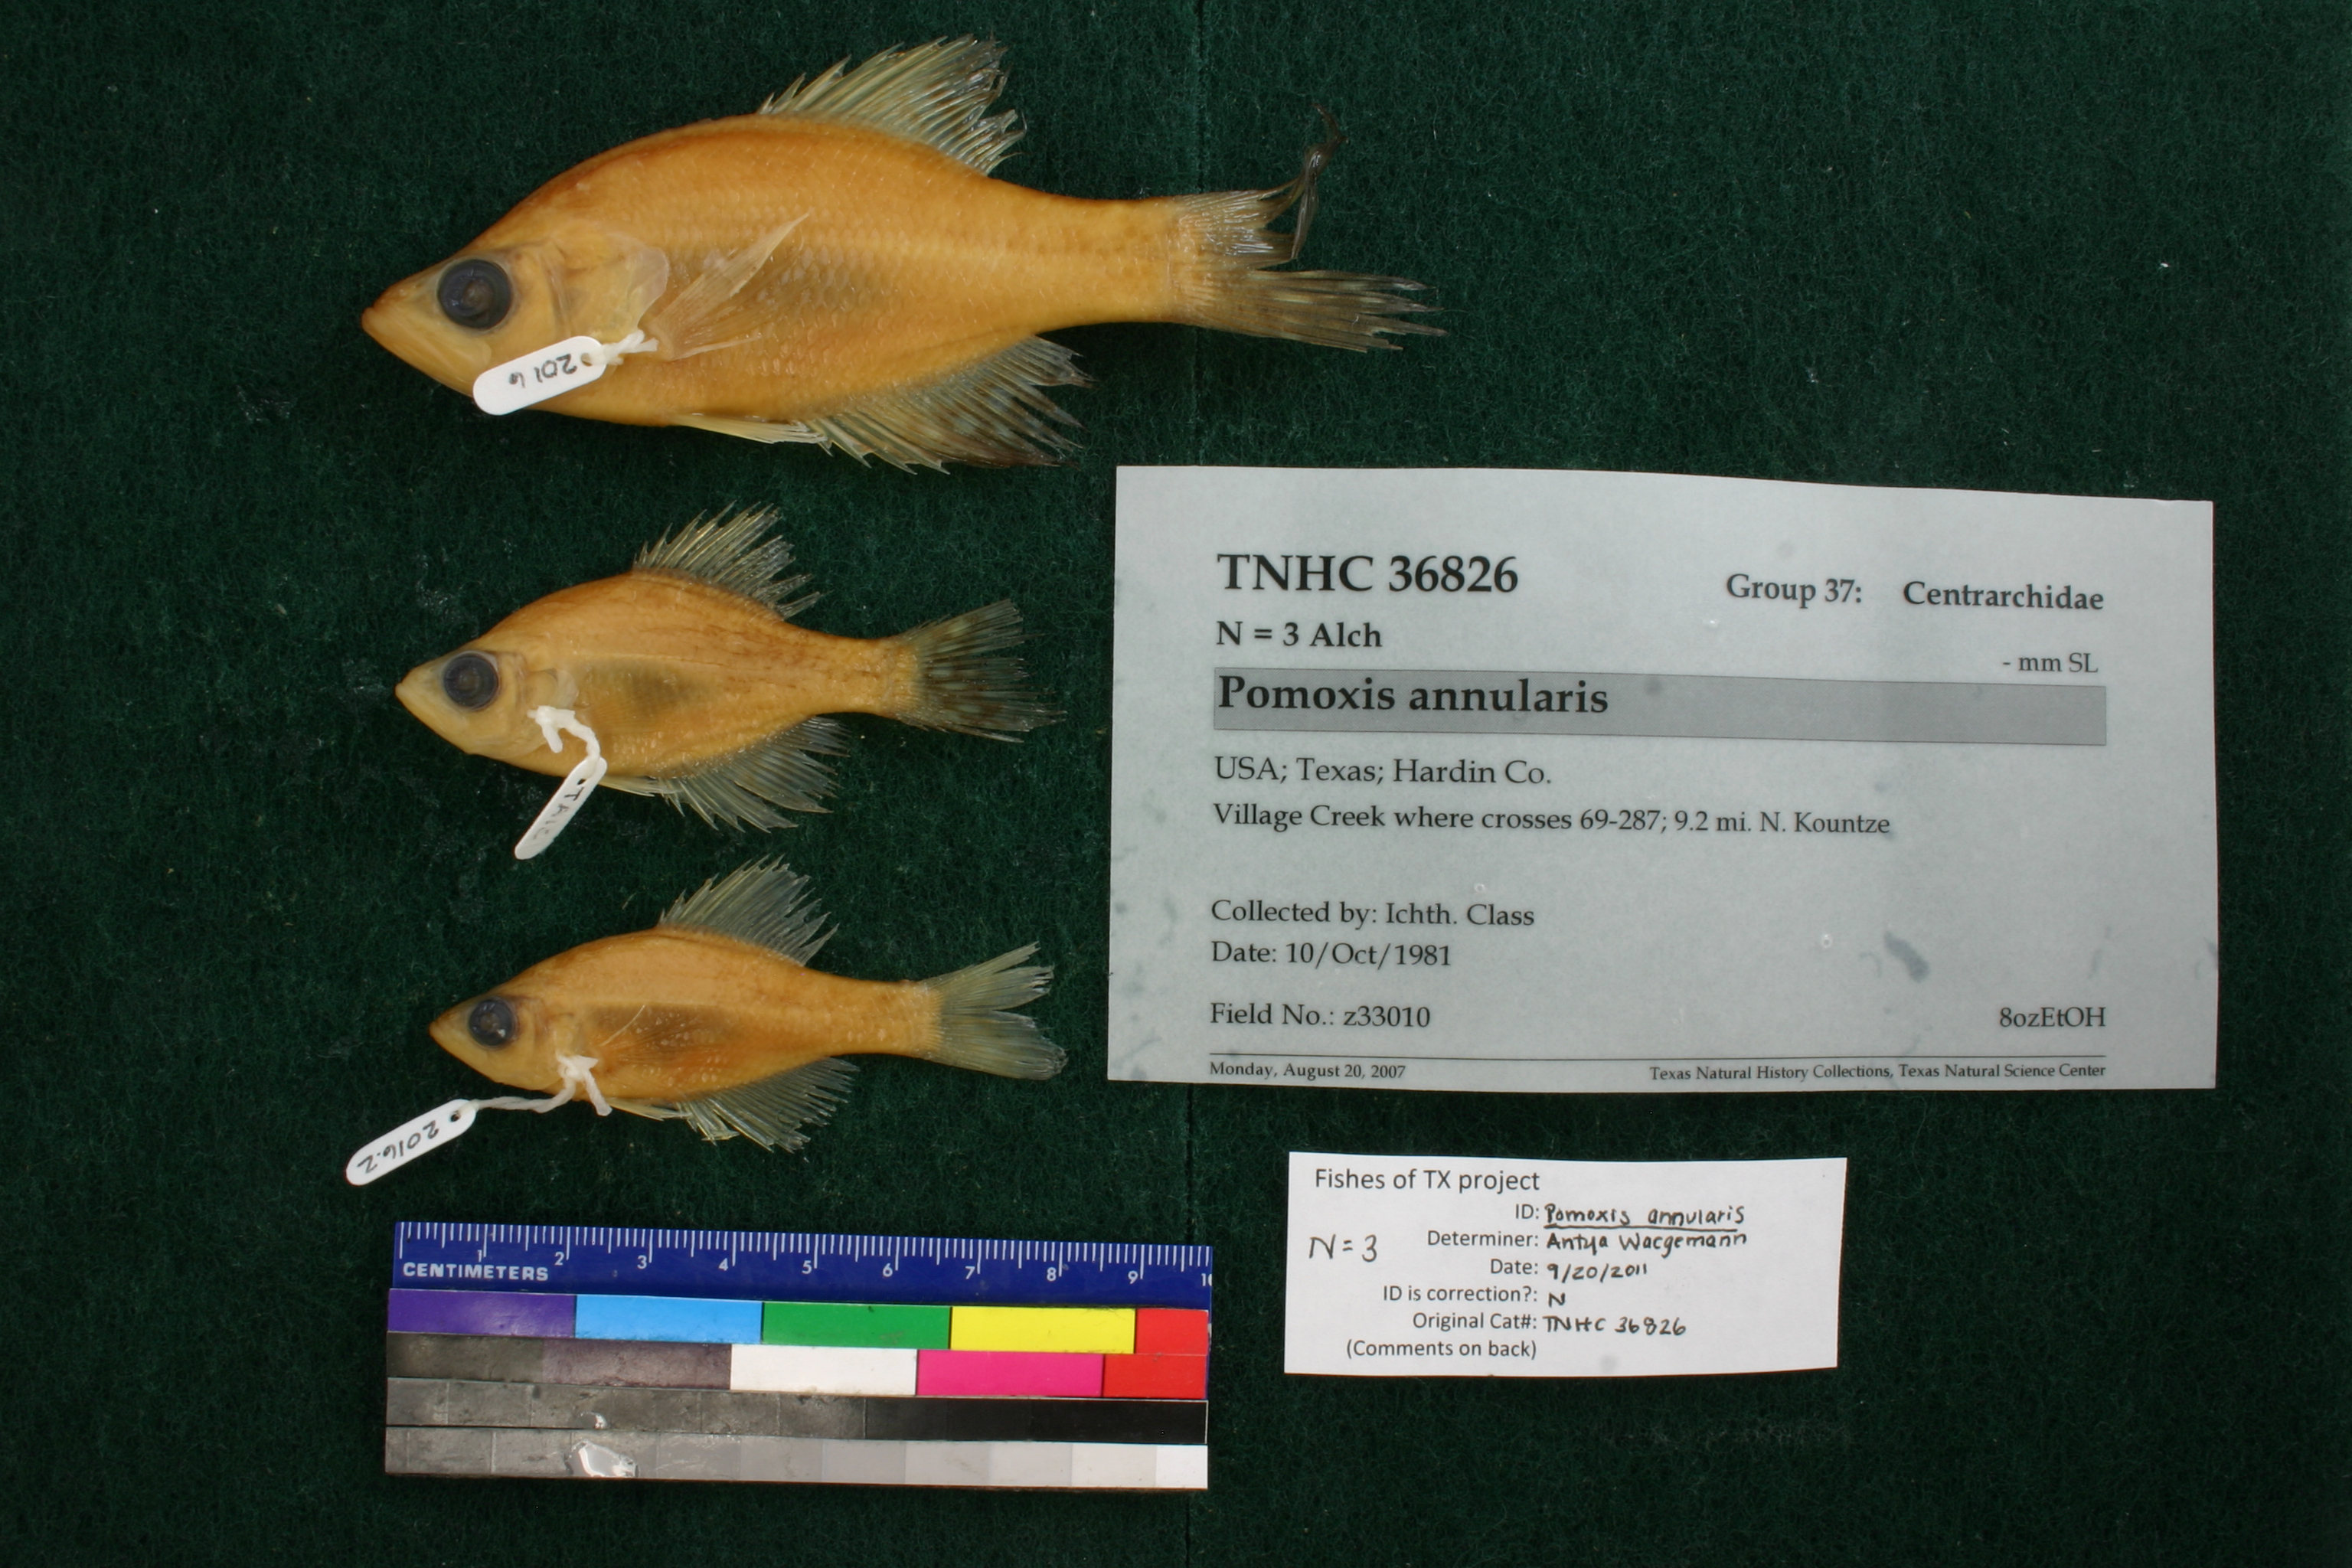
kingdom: Animalia
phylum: Chordata
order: Perciformes
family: Centrarchidae
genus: Pomoxis
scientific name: Pomoxis annularis
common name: White crappie
